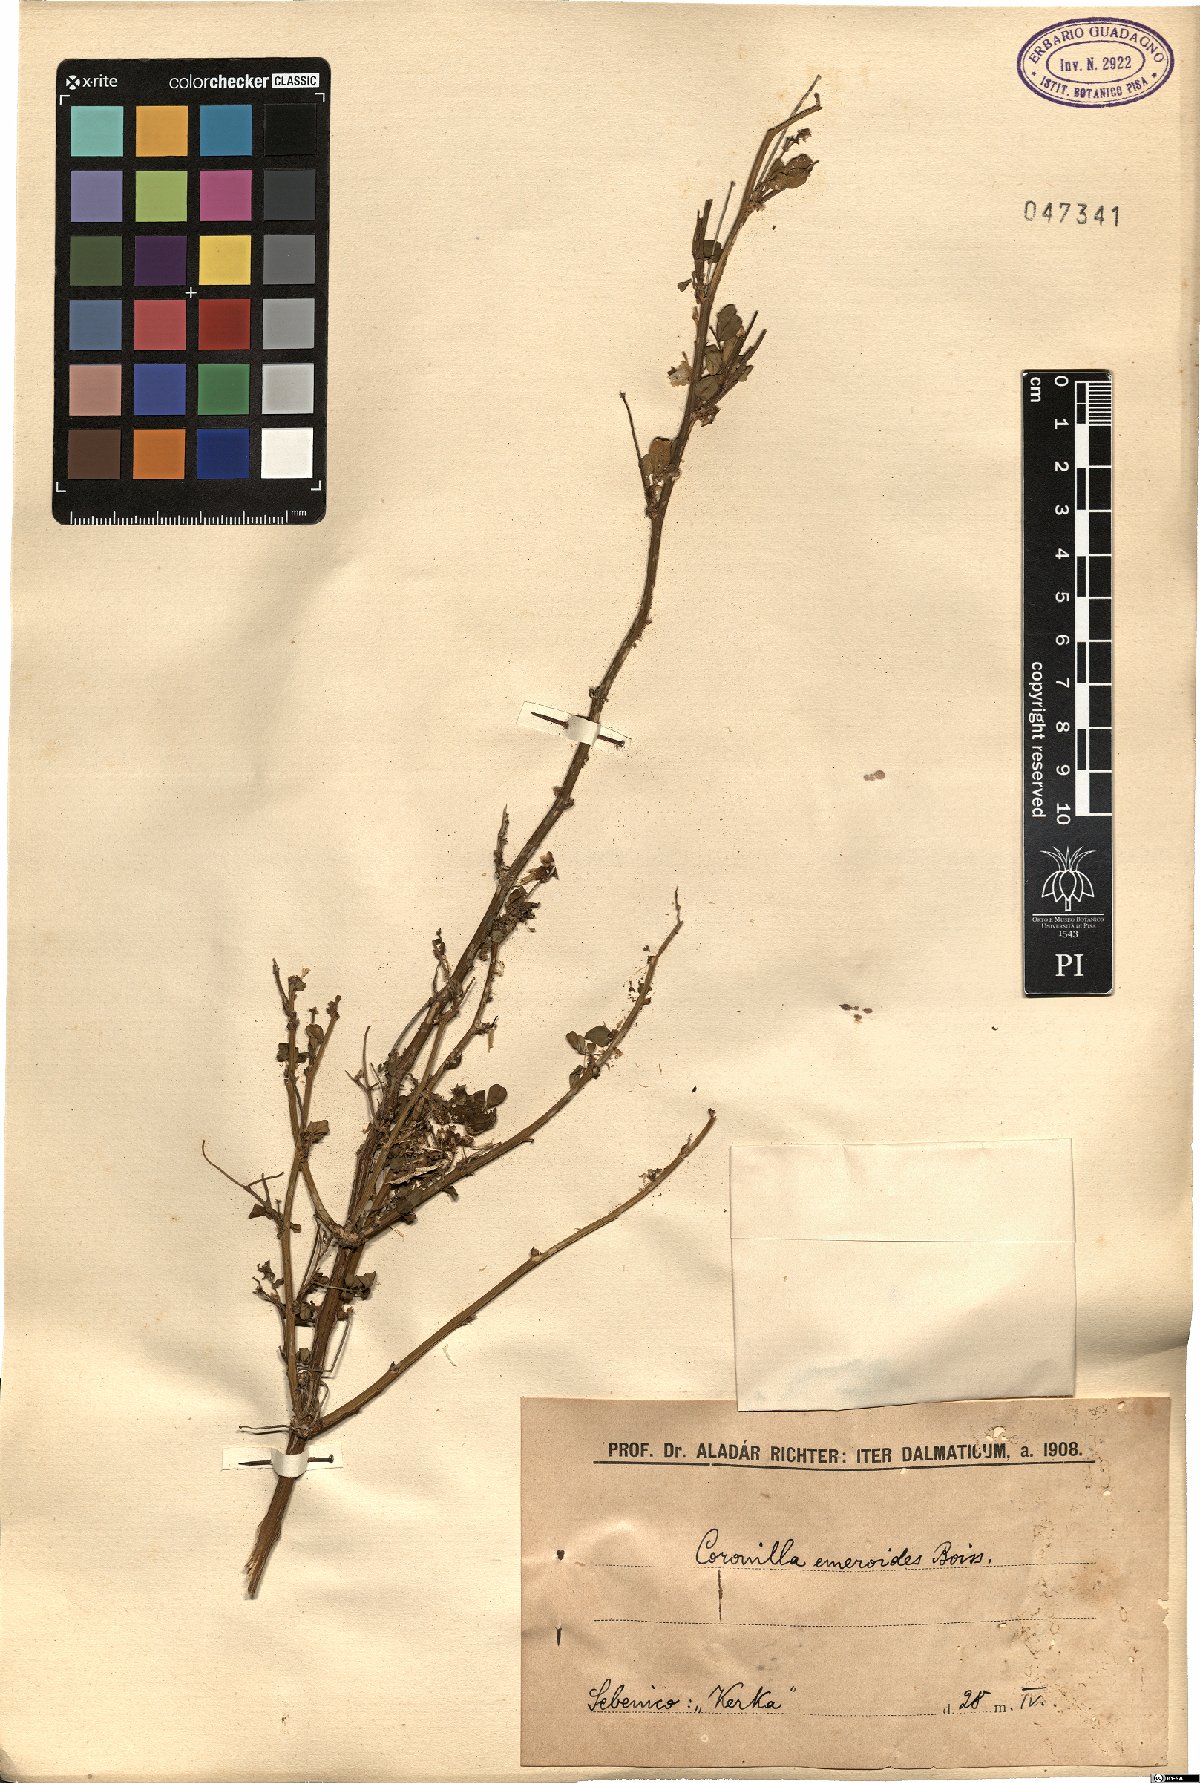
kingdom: Plantae
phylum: Tracheophyta
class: Magnoliopsida
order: Fabales
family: Fabaceae
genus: Hippocrepis
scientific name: Hippocrepis emerus
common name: Scorpion senna
